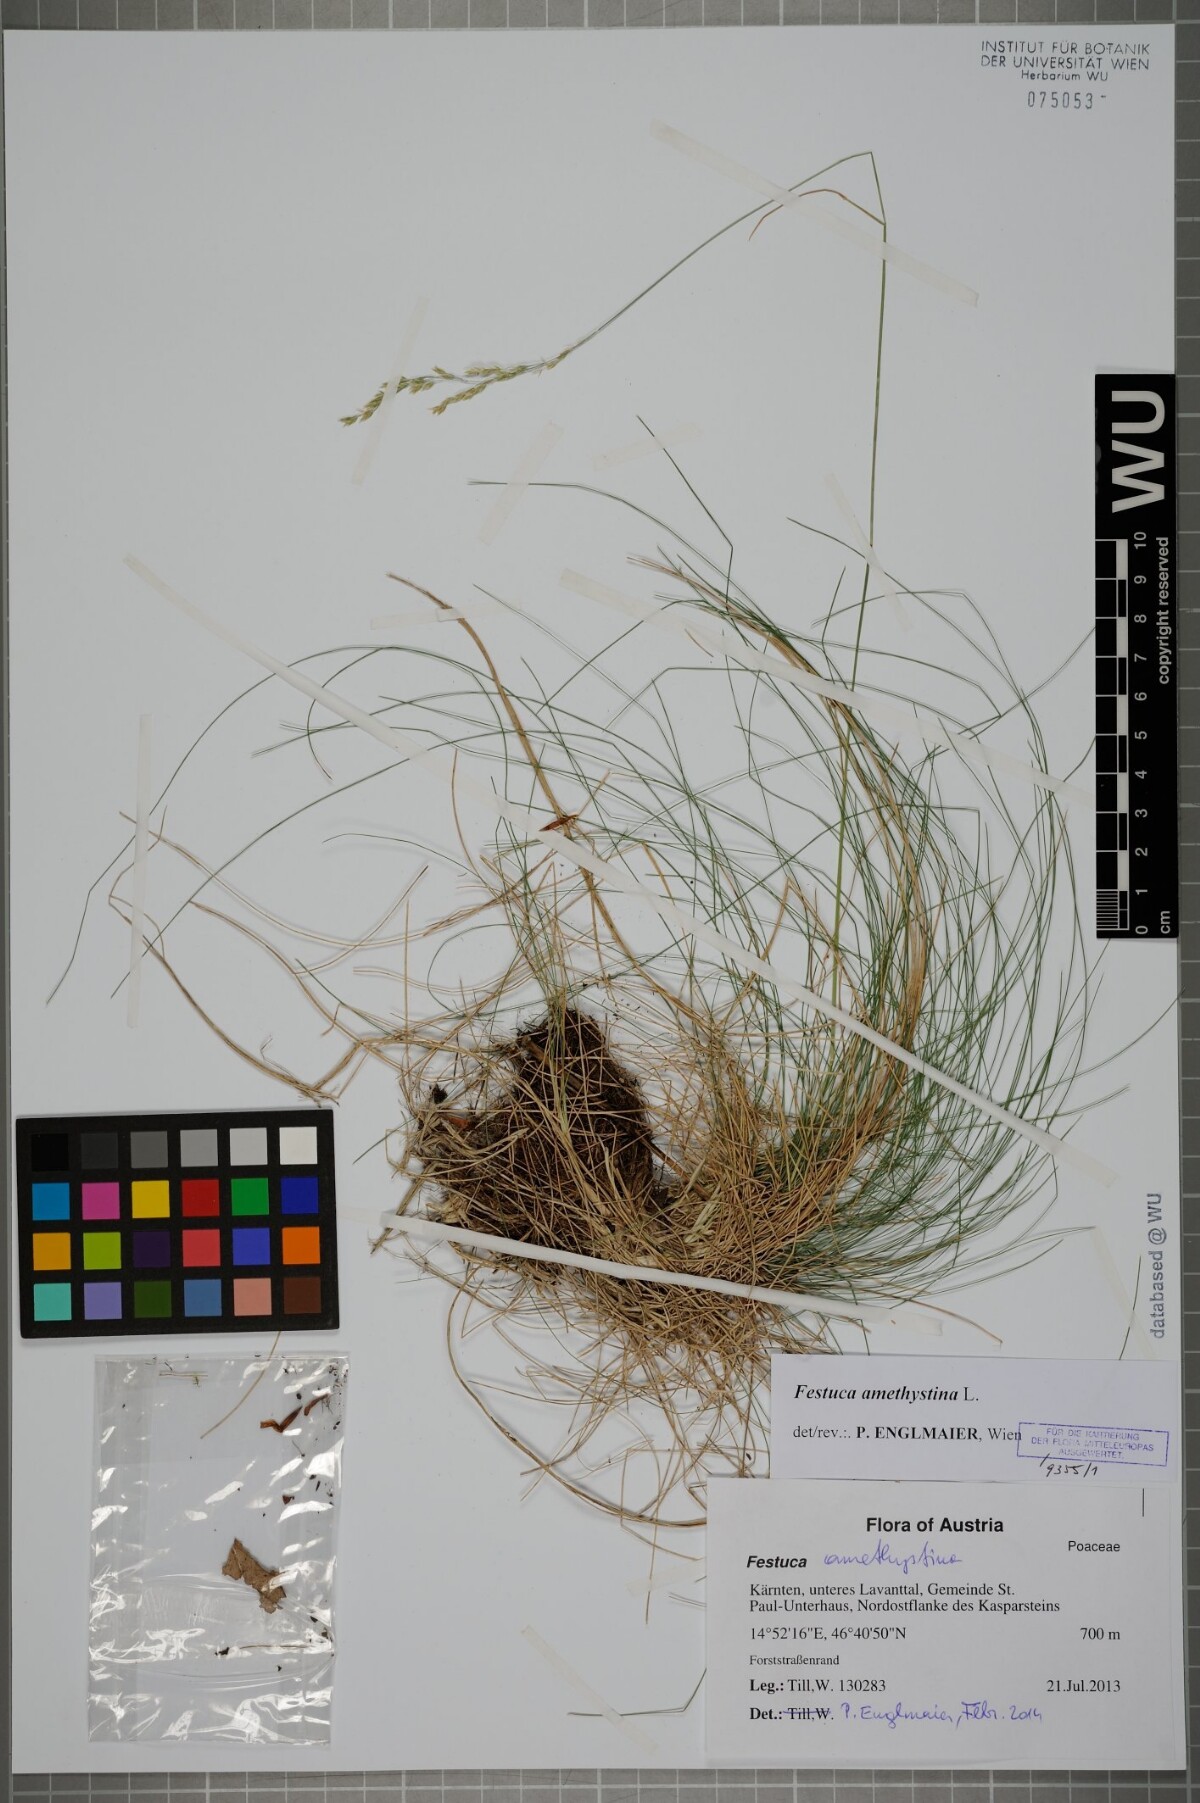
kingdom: Plantae
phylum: Tracheophyta
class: Liliopsida
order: Poales
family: Poaceae
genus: Festuca
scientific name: Festuca amethystina
